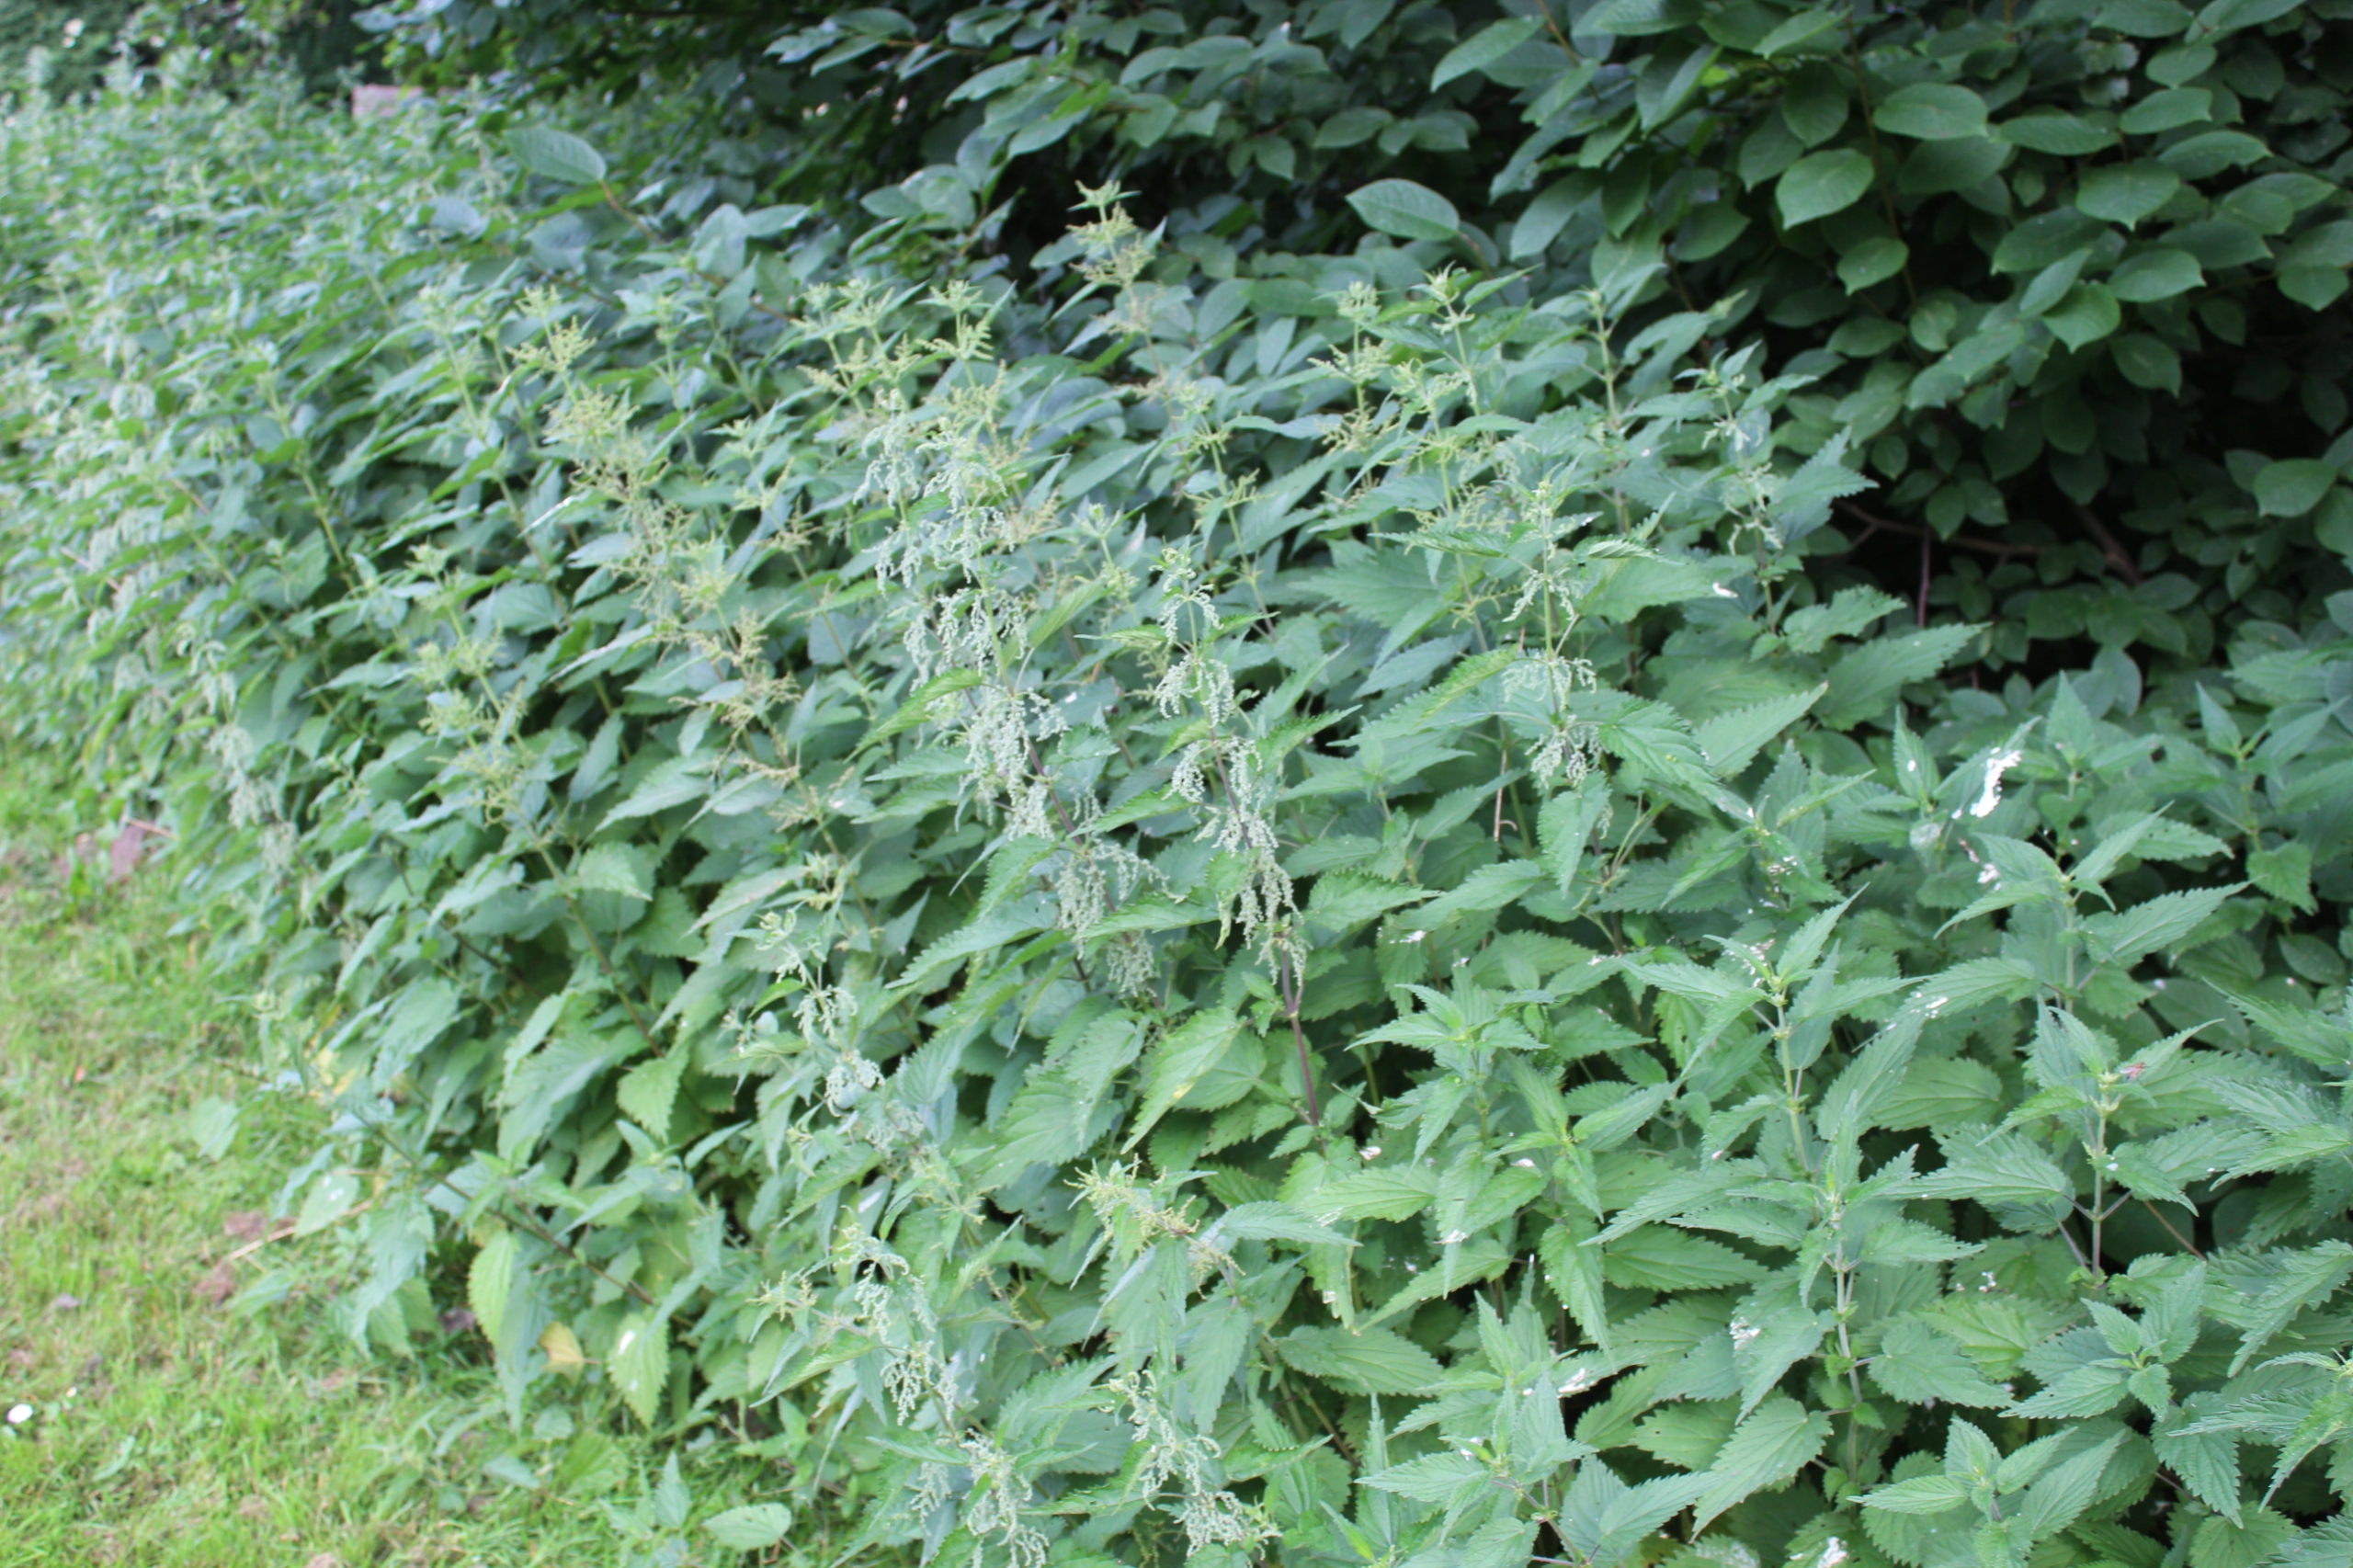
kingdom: Plantae
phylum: Tracheophyta
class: Magnoliopsida
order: Rosales
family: Urticaceae
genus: Urtica
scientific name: Urtica dioica
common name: Stor nælde
